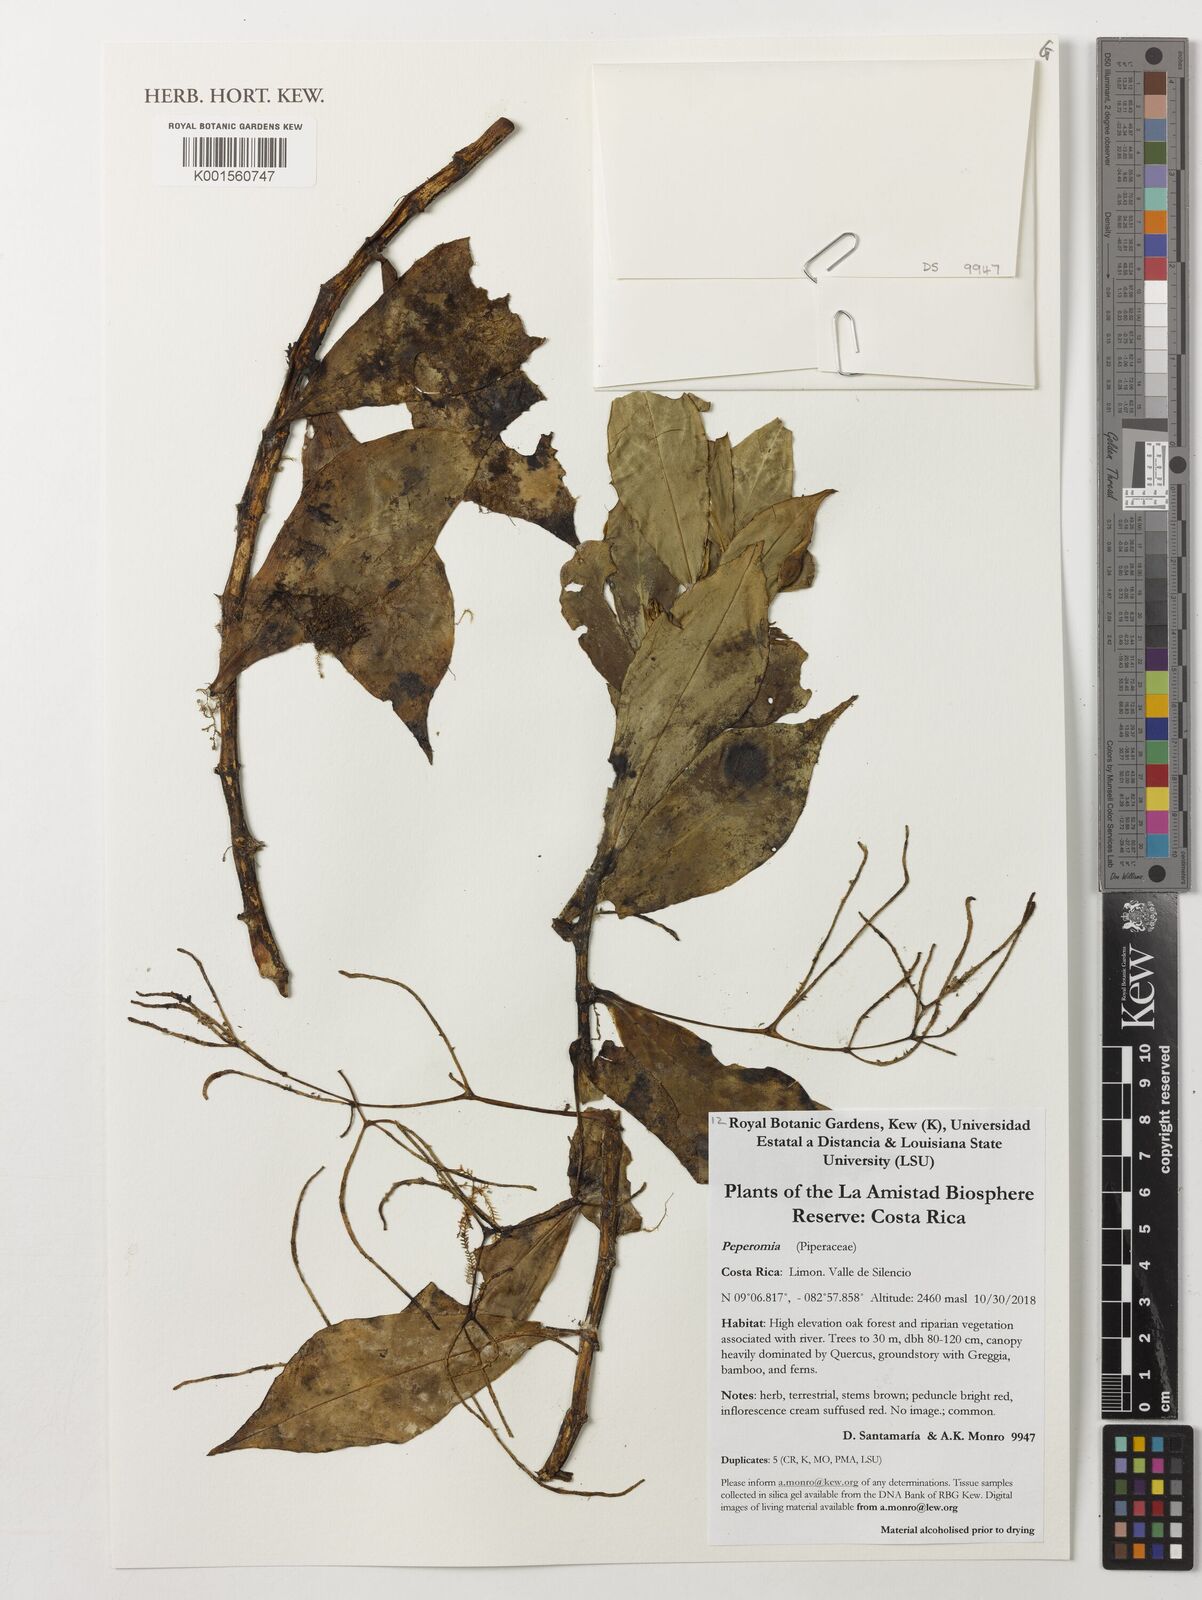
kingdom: Plantae
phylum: Tracheophyta
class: Magnoliopsida
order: Piperales
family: Piperaceae
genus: Peperomia
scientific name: Peperomia
